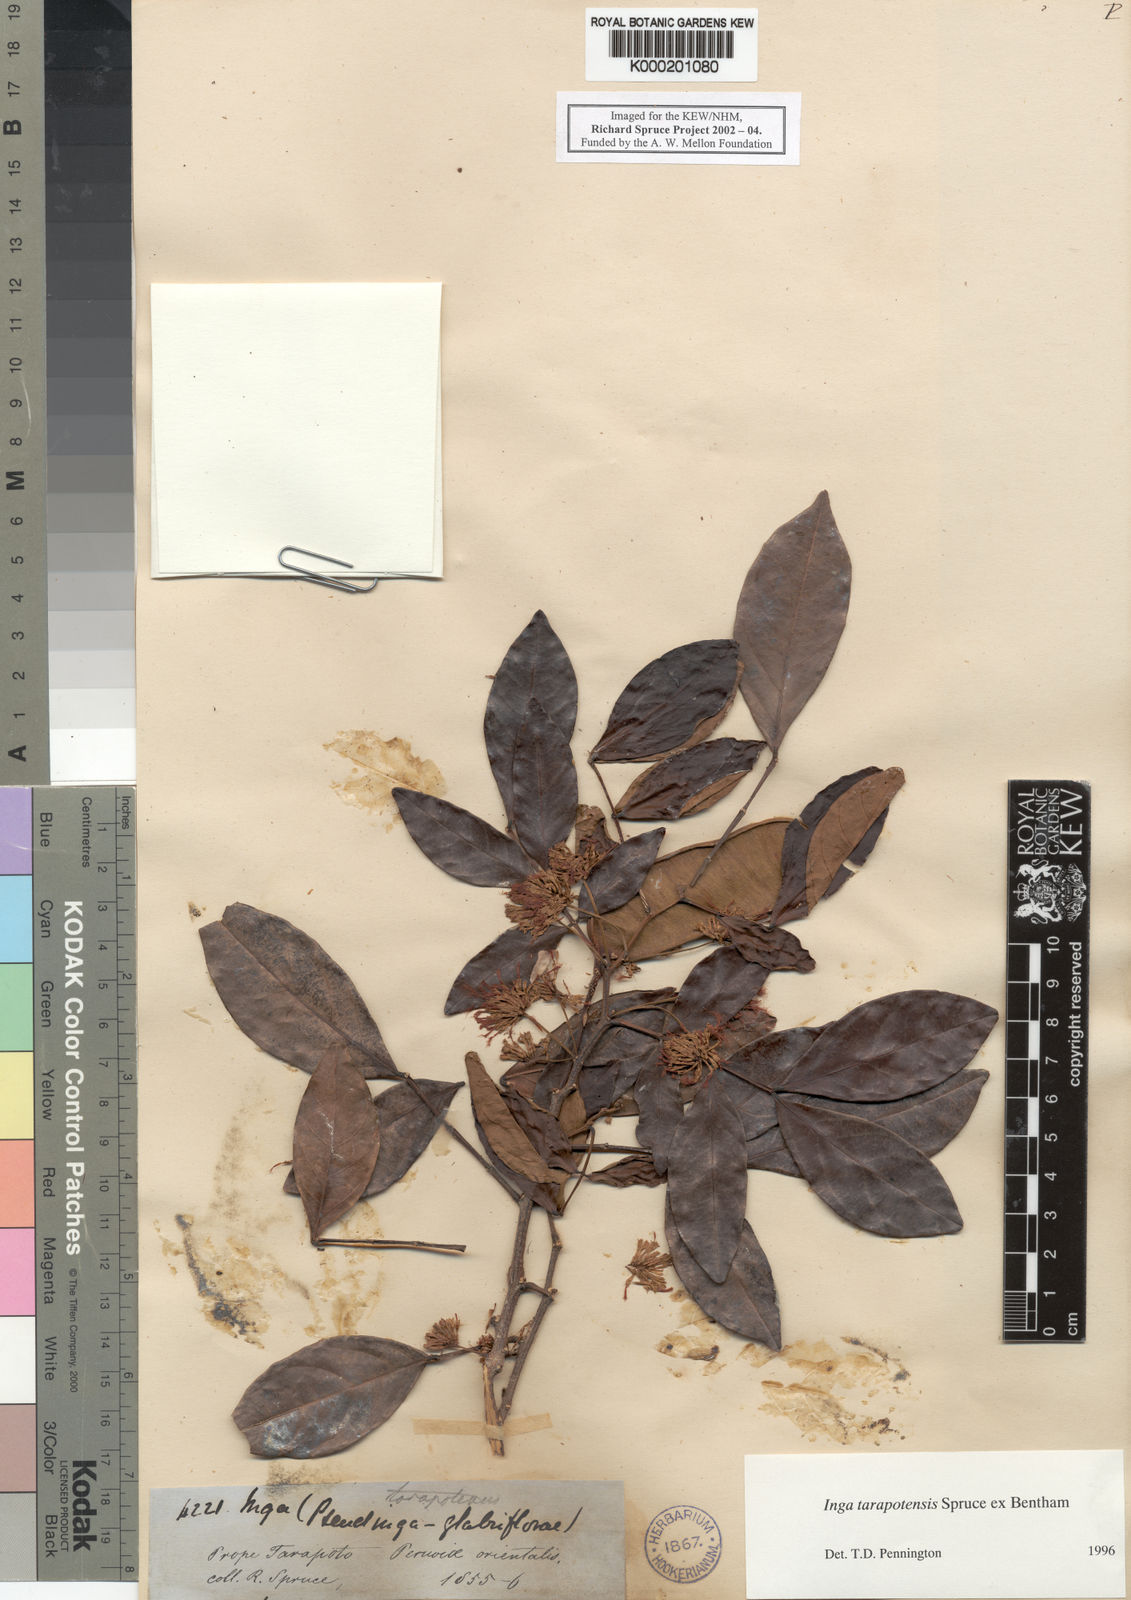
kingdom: Plantae
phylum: Tracheophyta
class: Magnoliopsida
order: Fabales
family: Fabaceae
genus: Inga
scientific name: Inga tarapotensis
